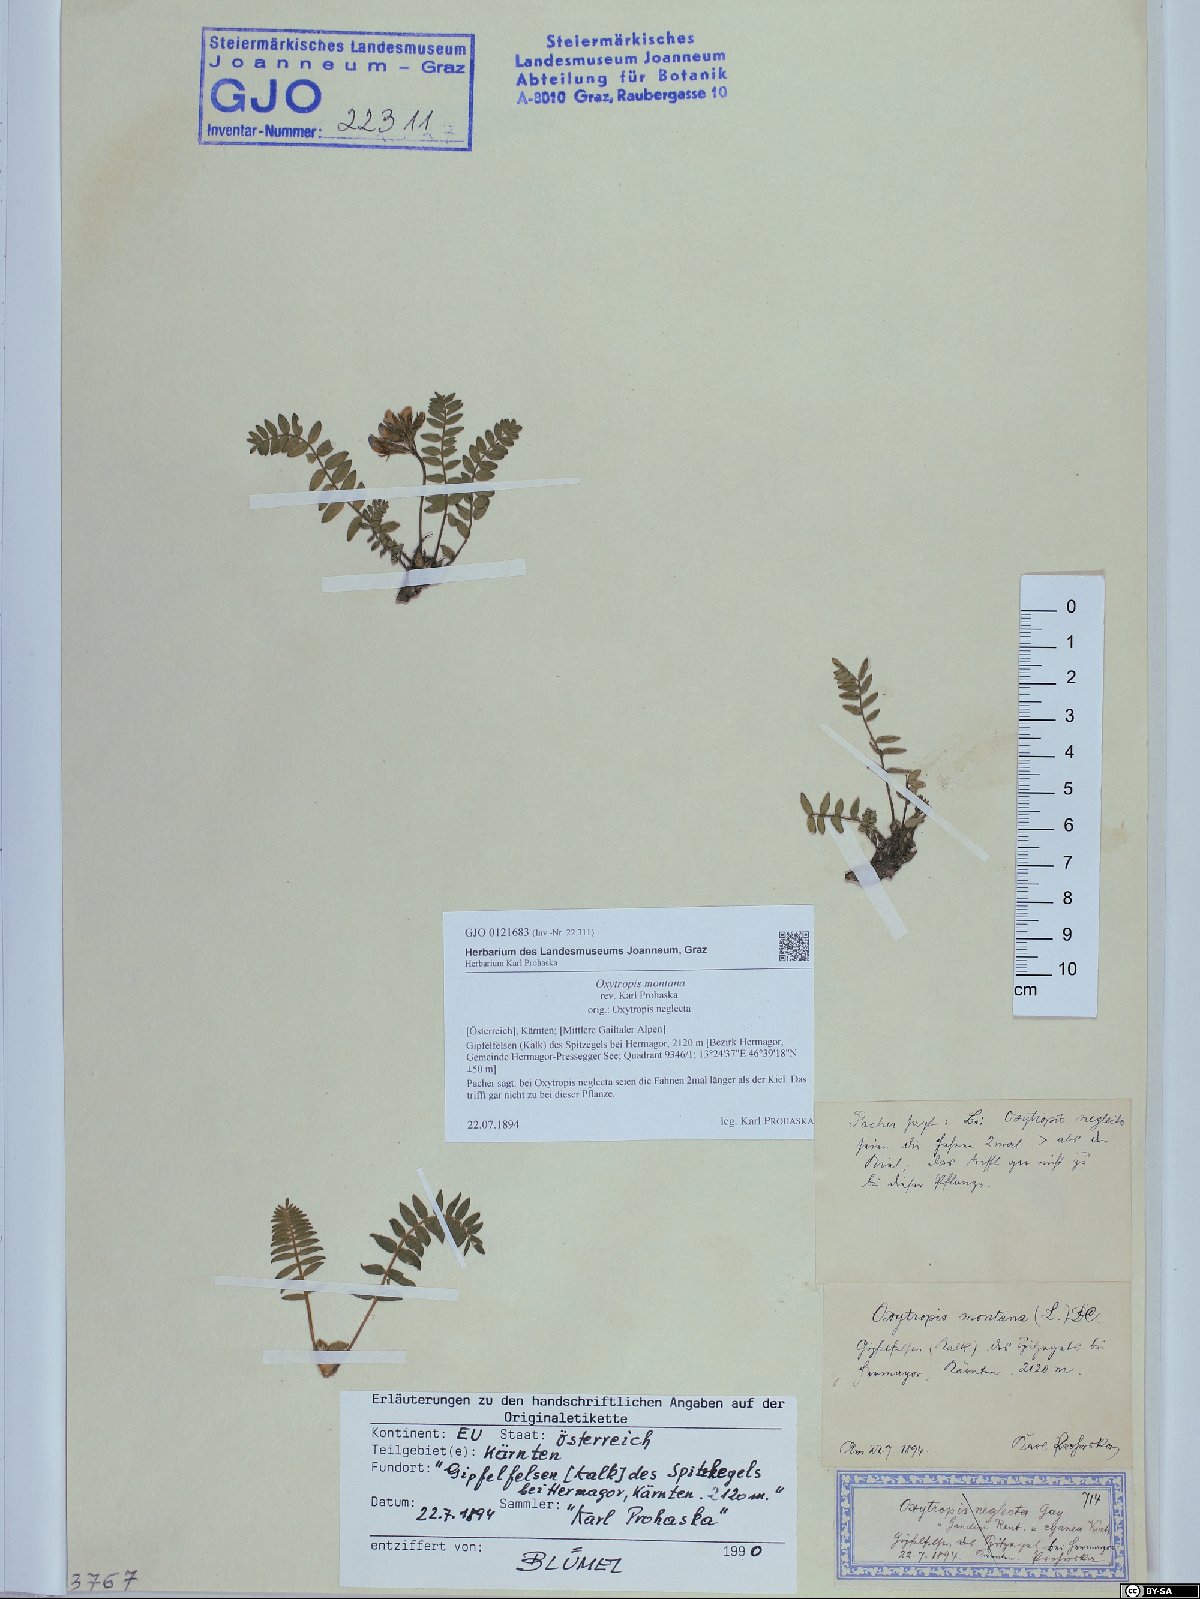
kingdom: Plantae
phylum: Tracheophyta
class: Magnoliopsida
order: Fabales
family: Fabaceae
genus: Oxytropis
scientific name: Oxytropis montana
